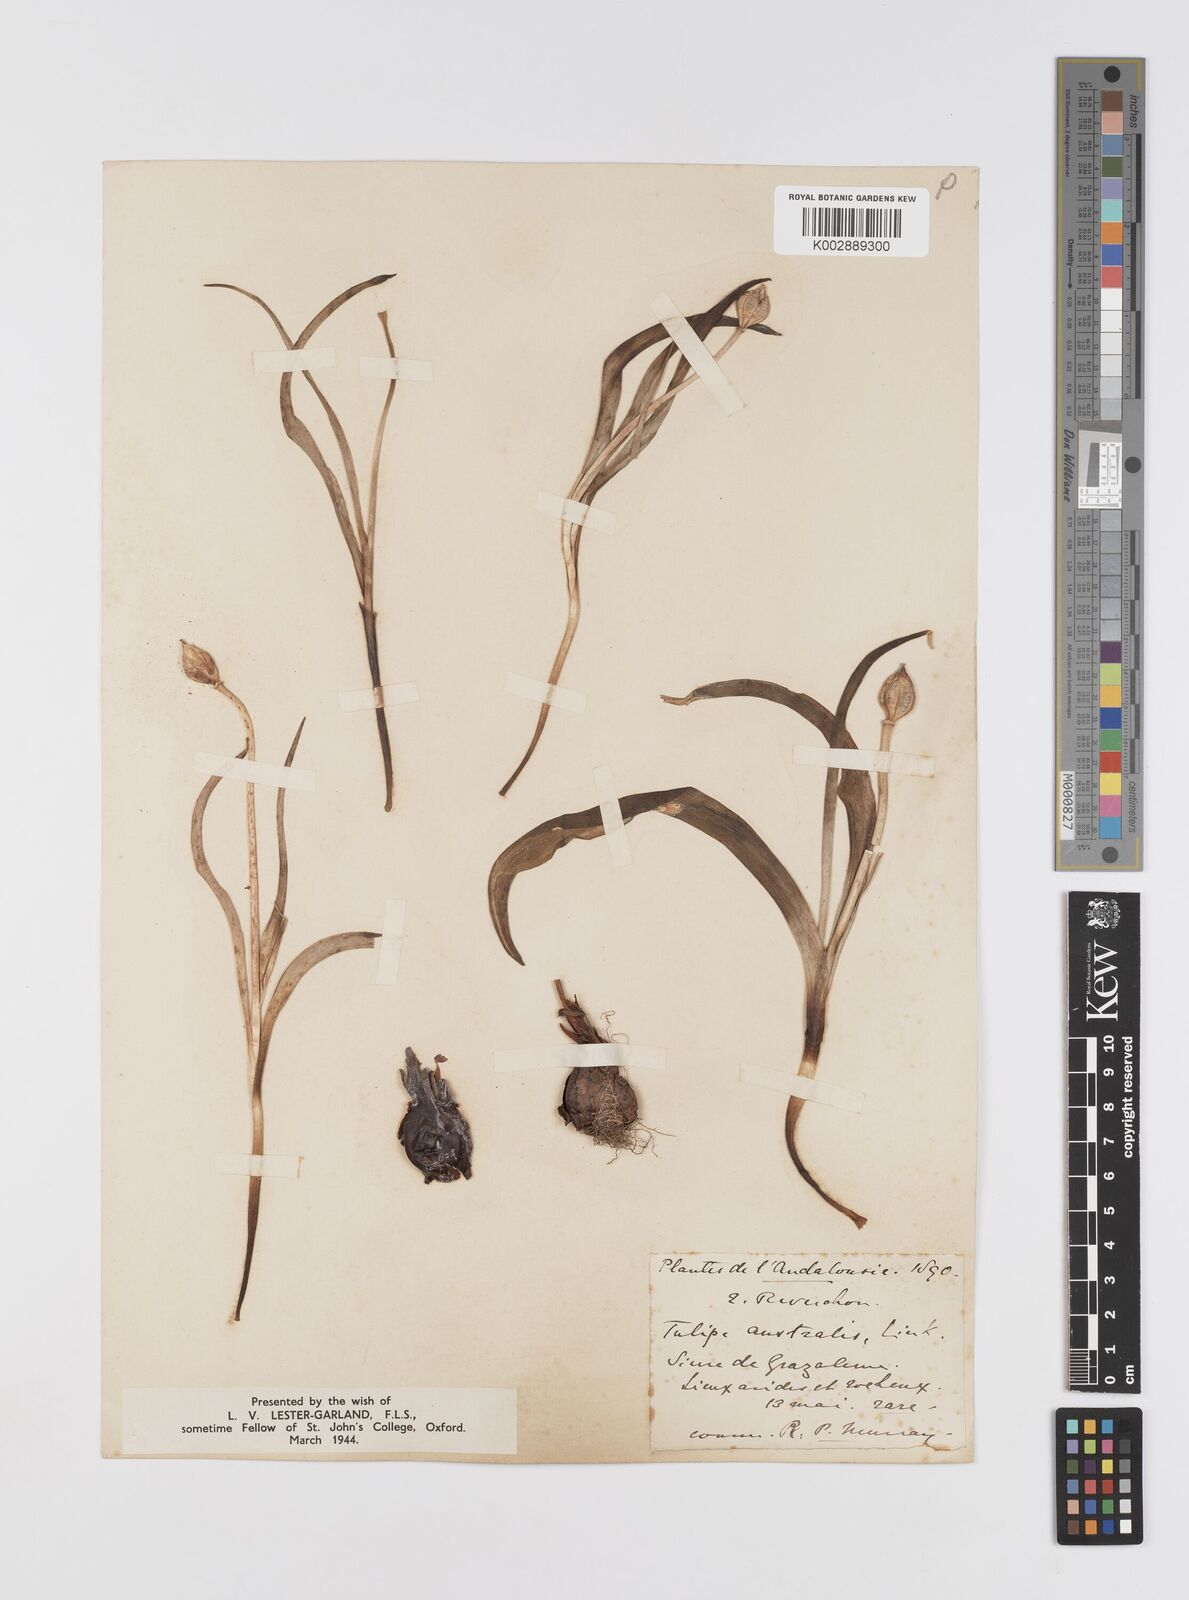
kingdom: Plantae
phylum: Tracheophyta
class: Liliopsida
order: Liliales
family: Liliaceae
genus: Tulipa
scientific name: Tulipa
